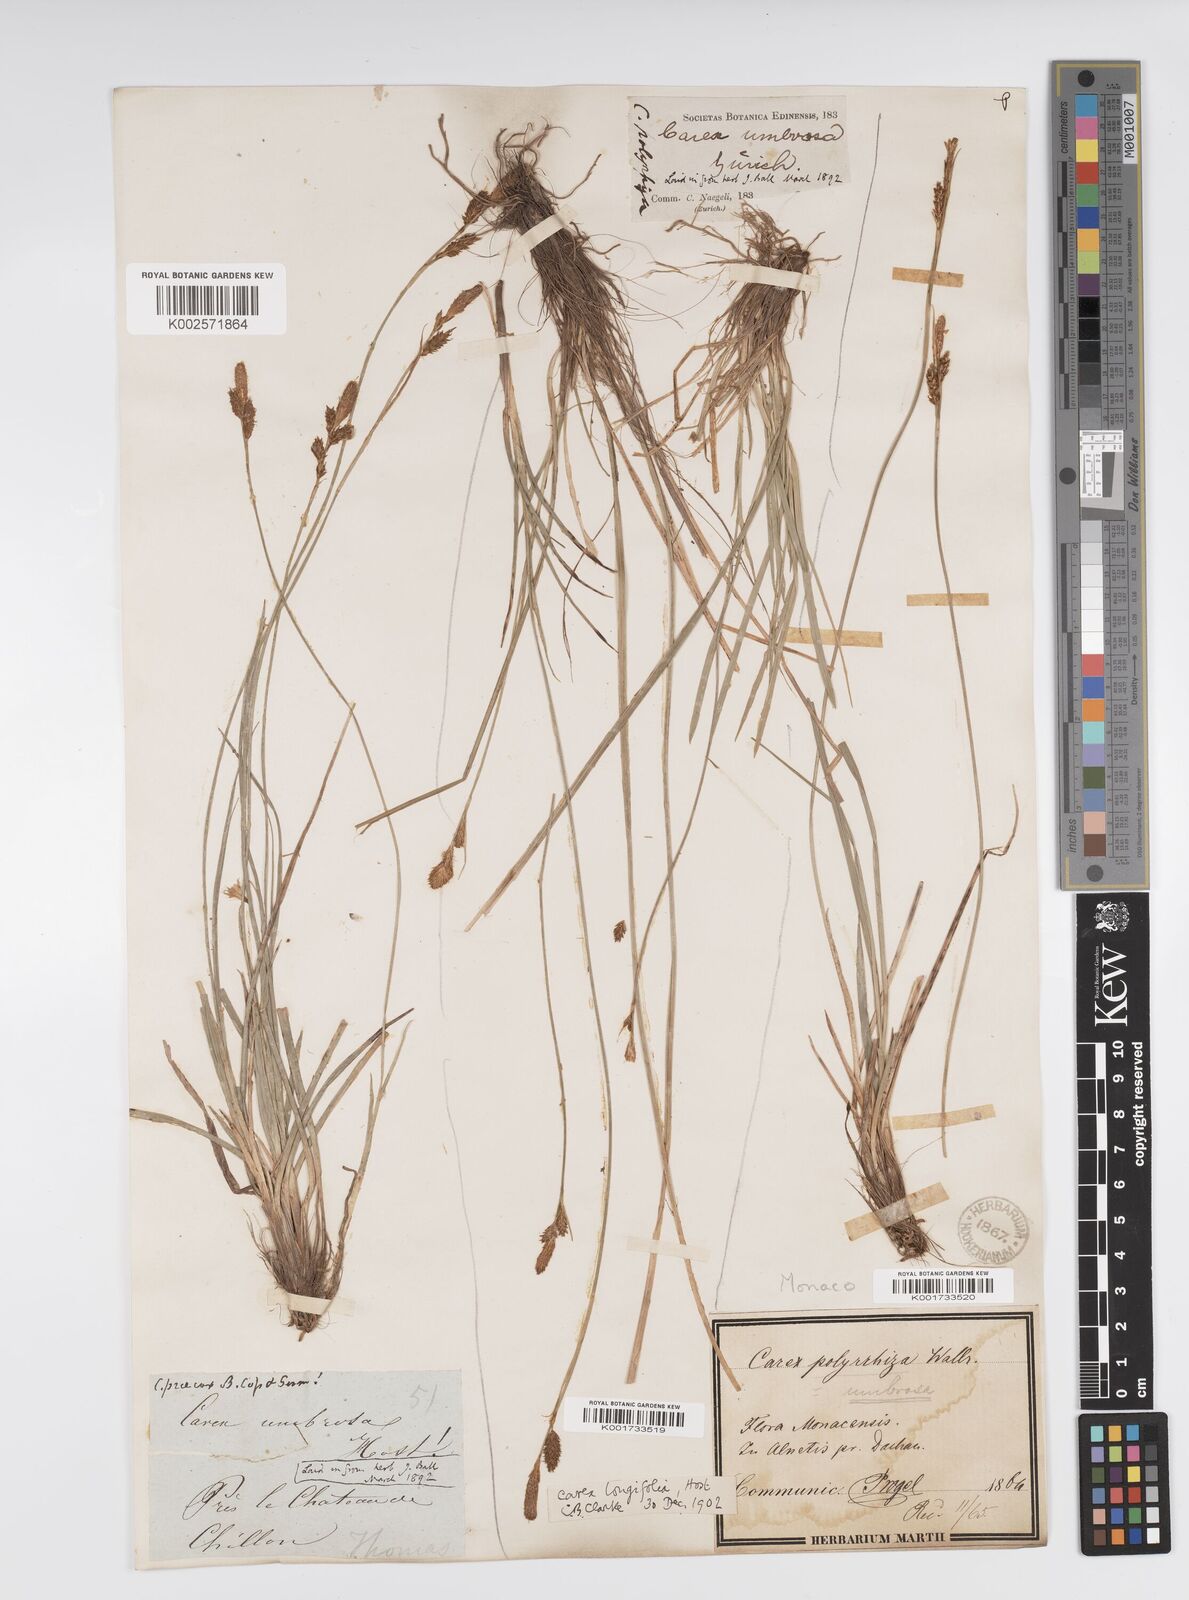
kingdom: Plantae
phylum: Tracheophyta
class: Liliopsida
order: Poales
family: Cyperaceae
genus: Carex
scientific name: Carex umbrosa
